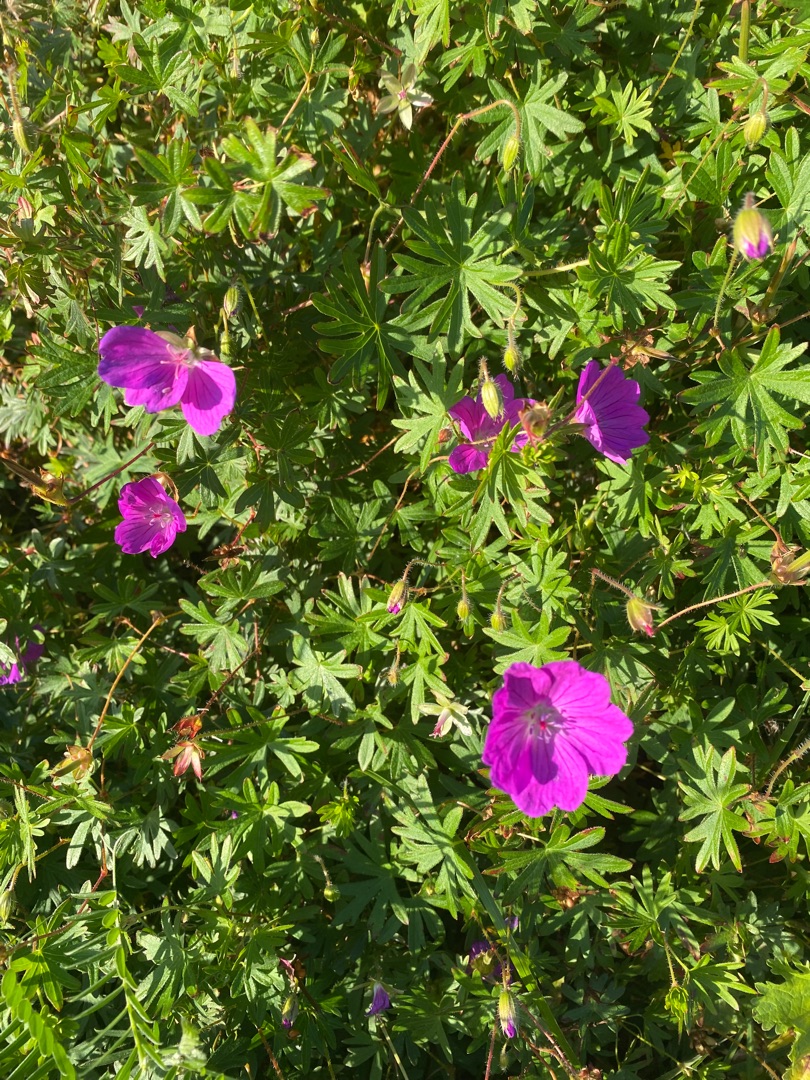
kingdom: Plantae
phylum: Tracheophyta
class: Magnoliopsida
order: Geraniales
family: Geraniaceae
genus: Geranium
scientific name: Geranium sanguineum
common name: Blodrød storkenæb
